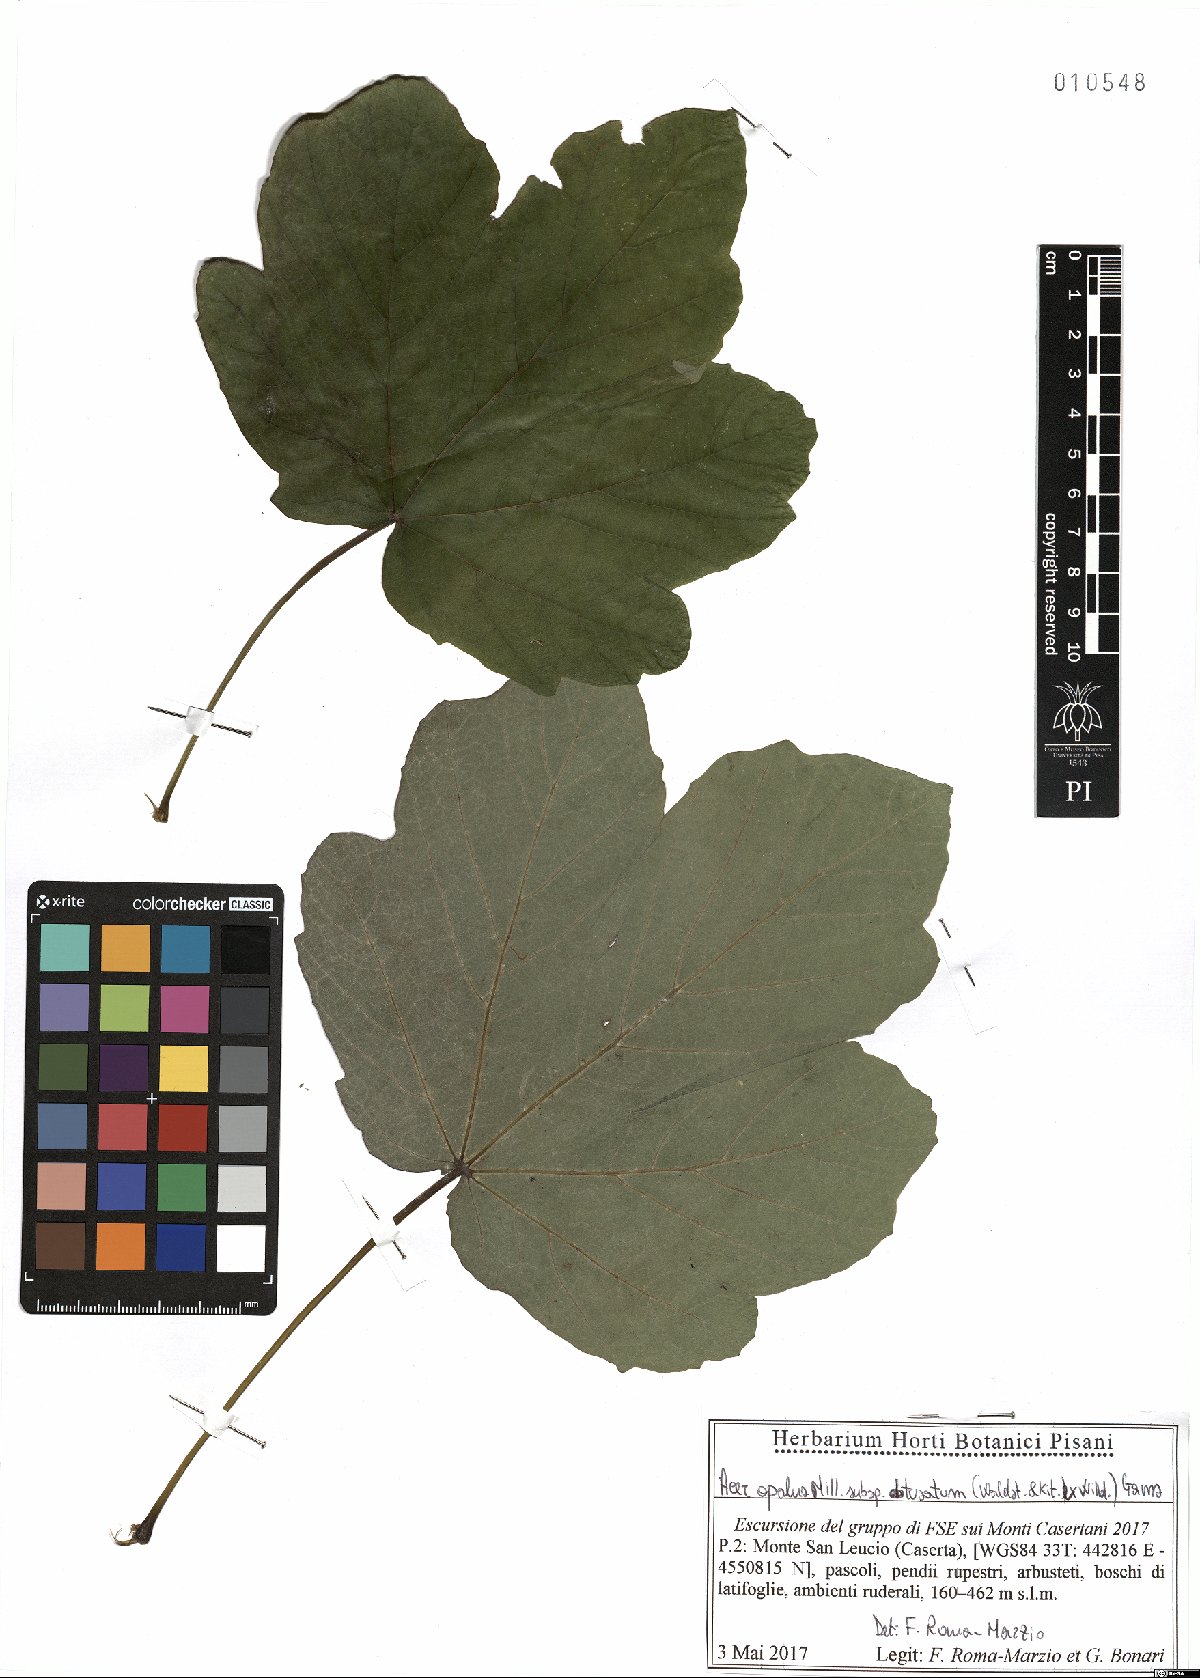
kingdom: Plantae
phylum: Tracheophyta
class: Magnoliopsida
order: Sapindales
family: Sapindaceae
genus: Acer
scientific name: Acer obtusatum
